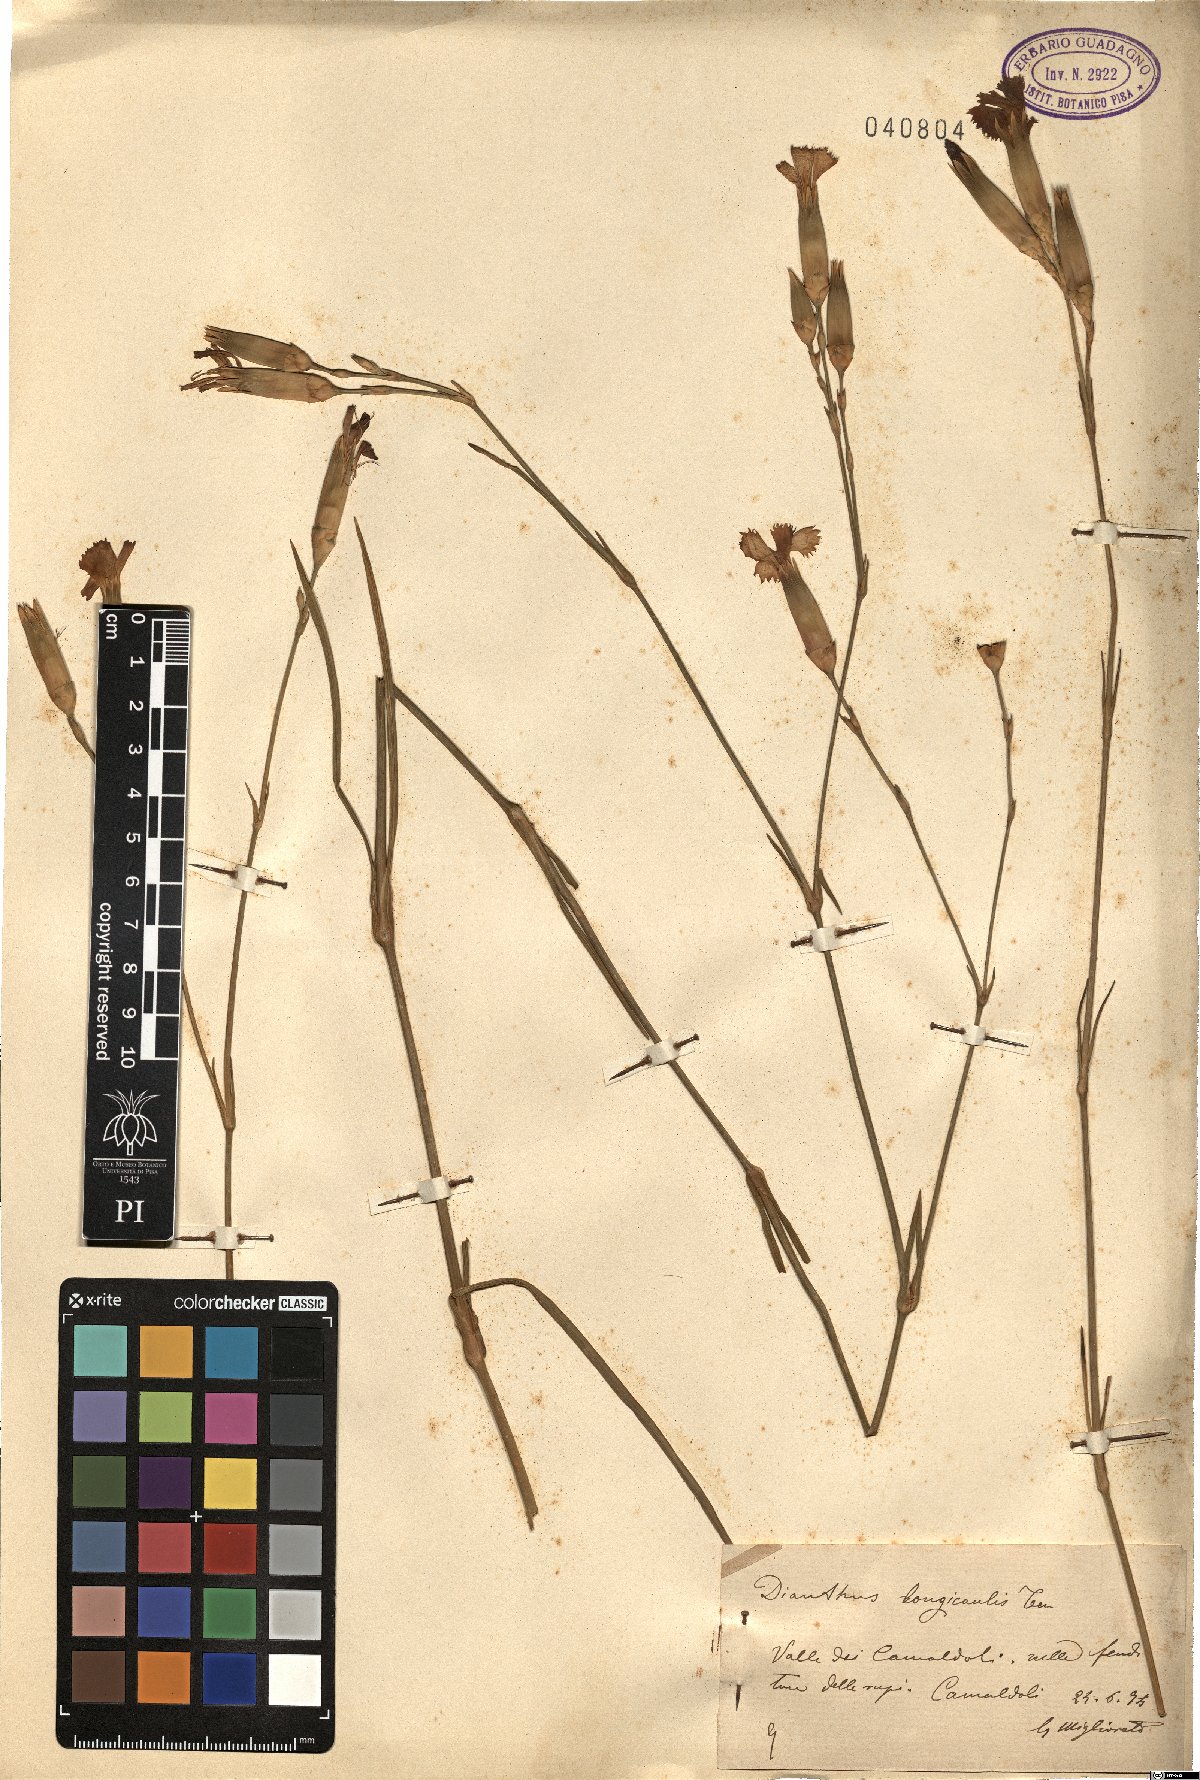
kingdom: Plantae
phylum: Tracheophyta
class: Magnoliopsida
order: Caryophyllales
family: Caryophyllaceae
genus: Dianthus
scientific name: Dianthus virgineus
